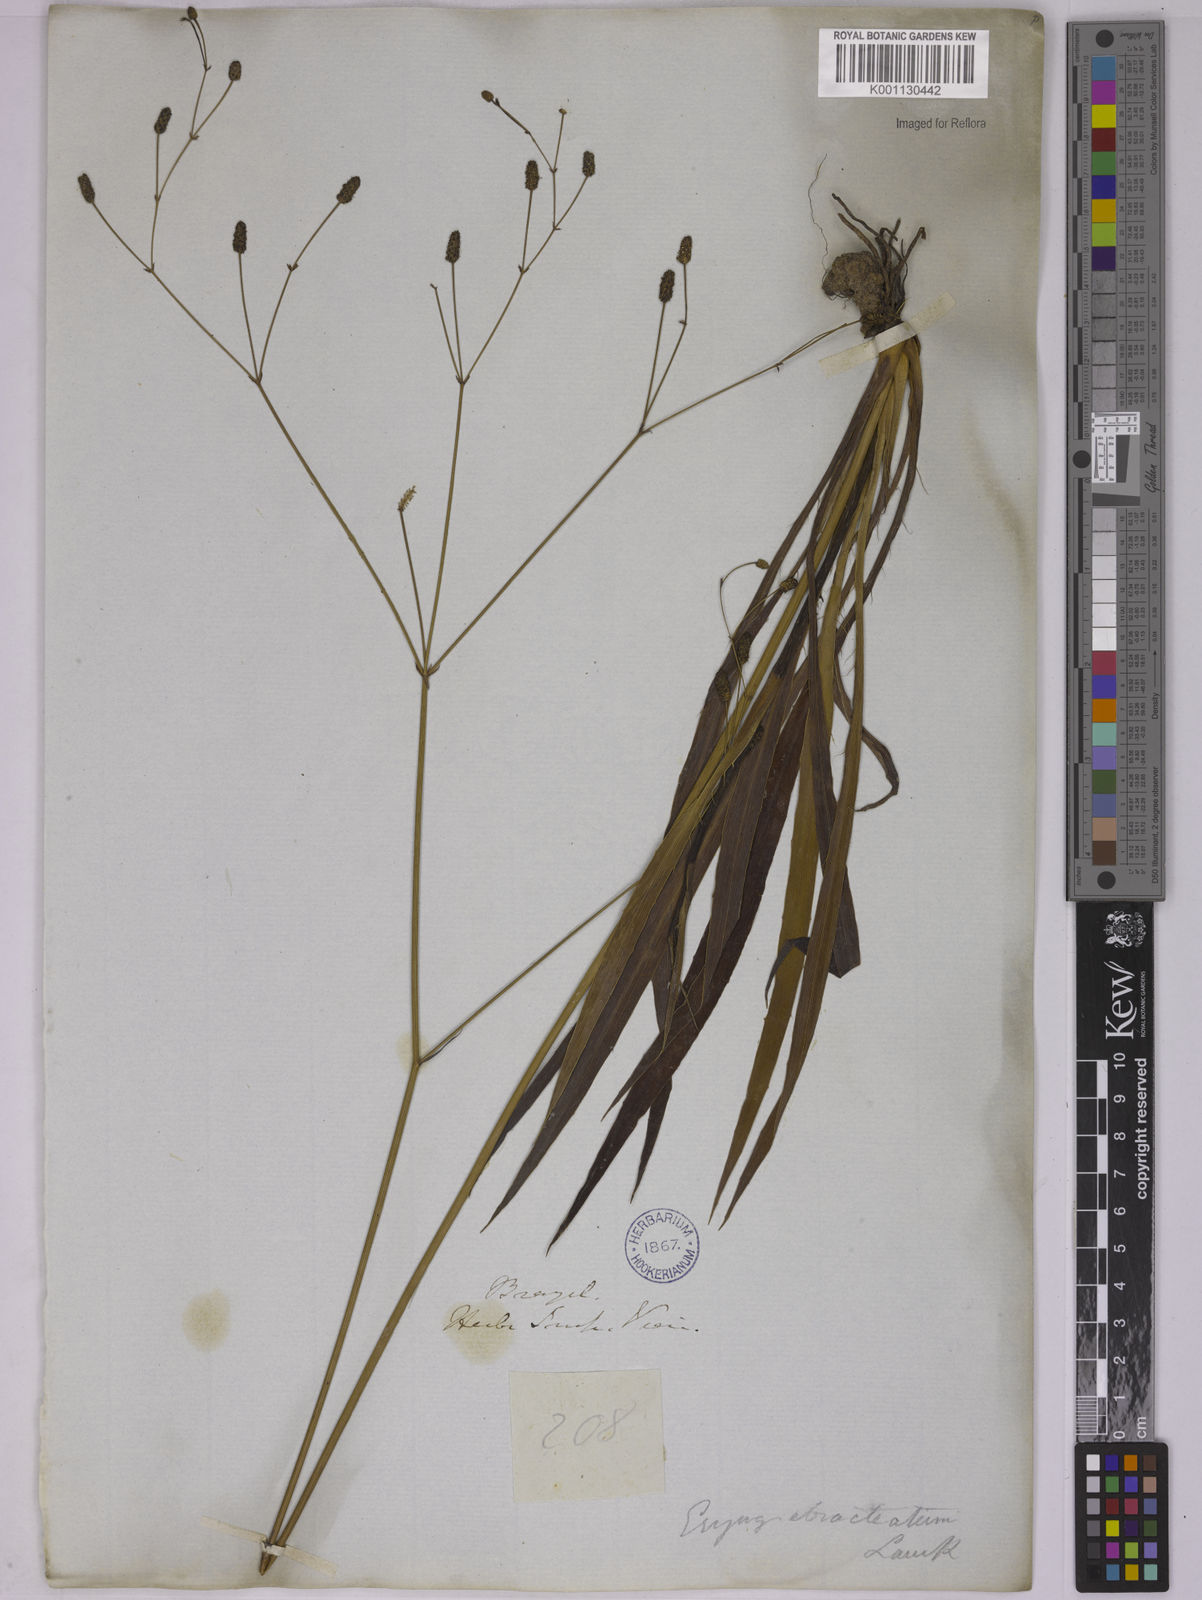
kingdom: Plantae
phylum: Tracheophyta
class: Magnoliopsida
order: Apiales
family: Apiaceae
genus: Eryngium
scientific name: Eryngium ebracteatum
